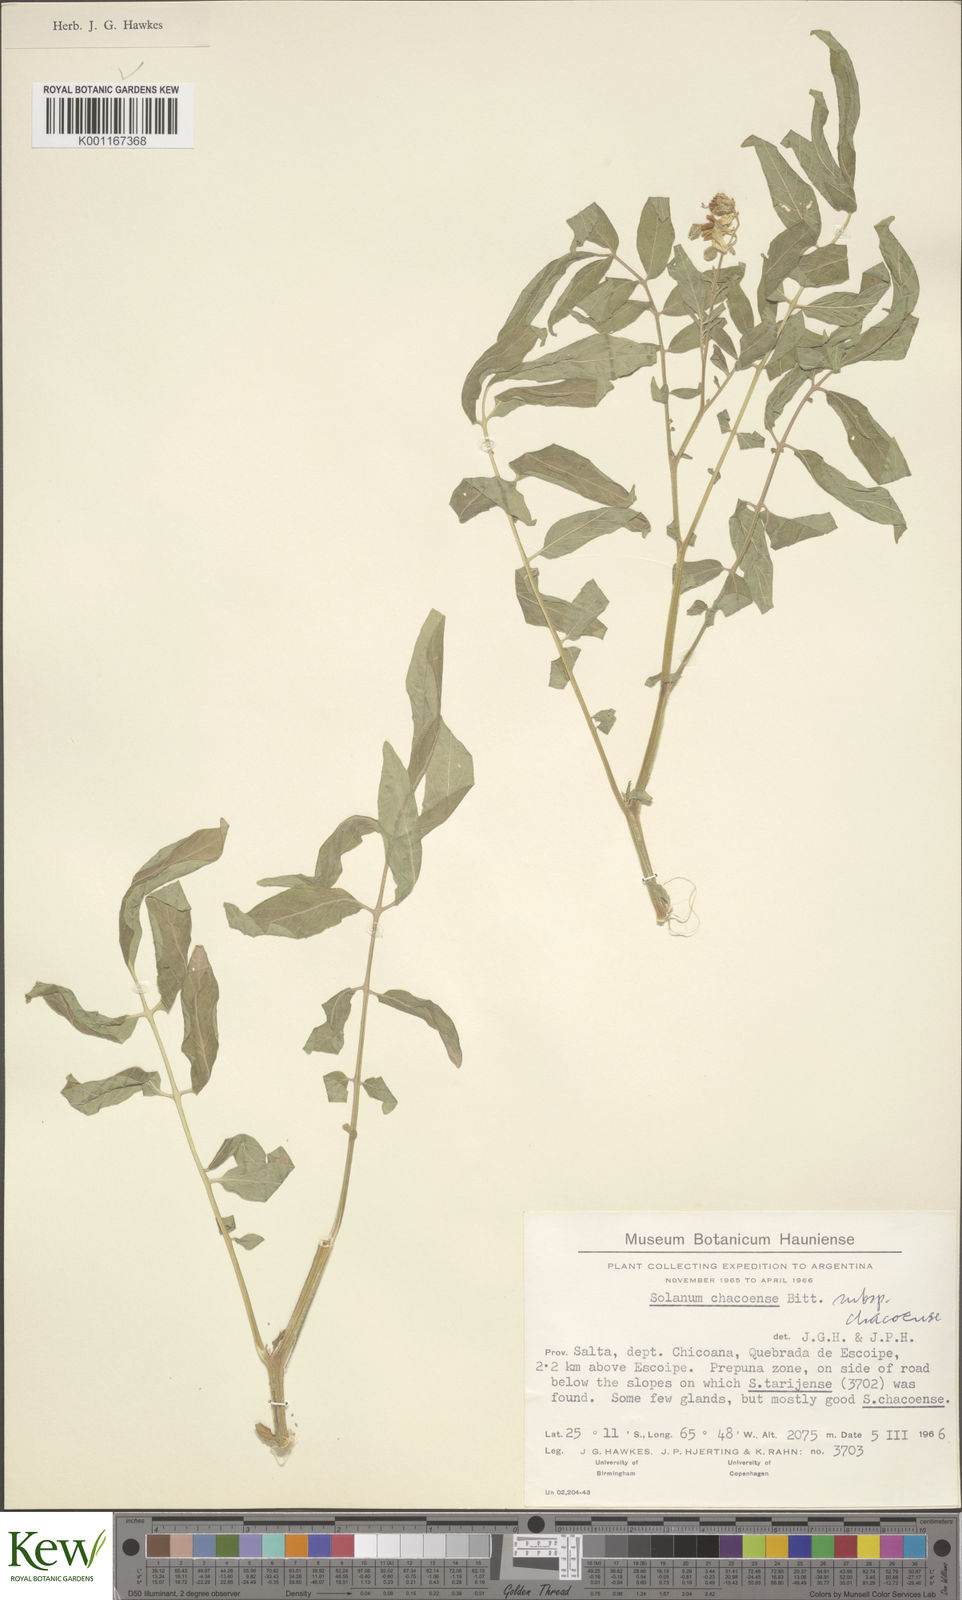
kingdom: Plantae
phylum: Tracheophyta
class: Magnoliopsida
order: Solanales
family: Solanaceae
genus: Solanum
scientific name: Solanum chacoense
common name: Chaco potato
